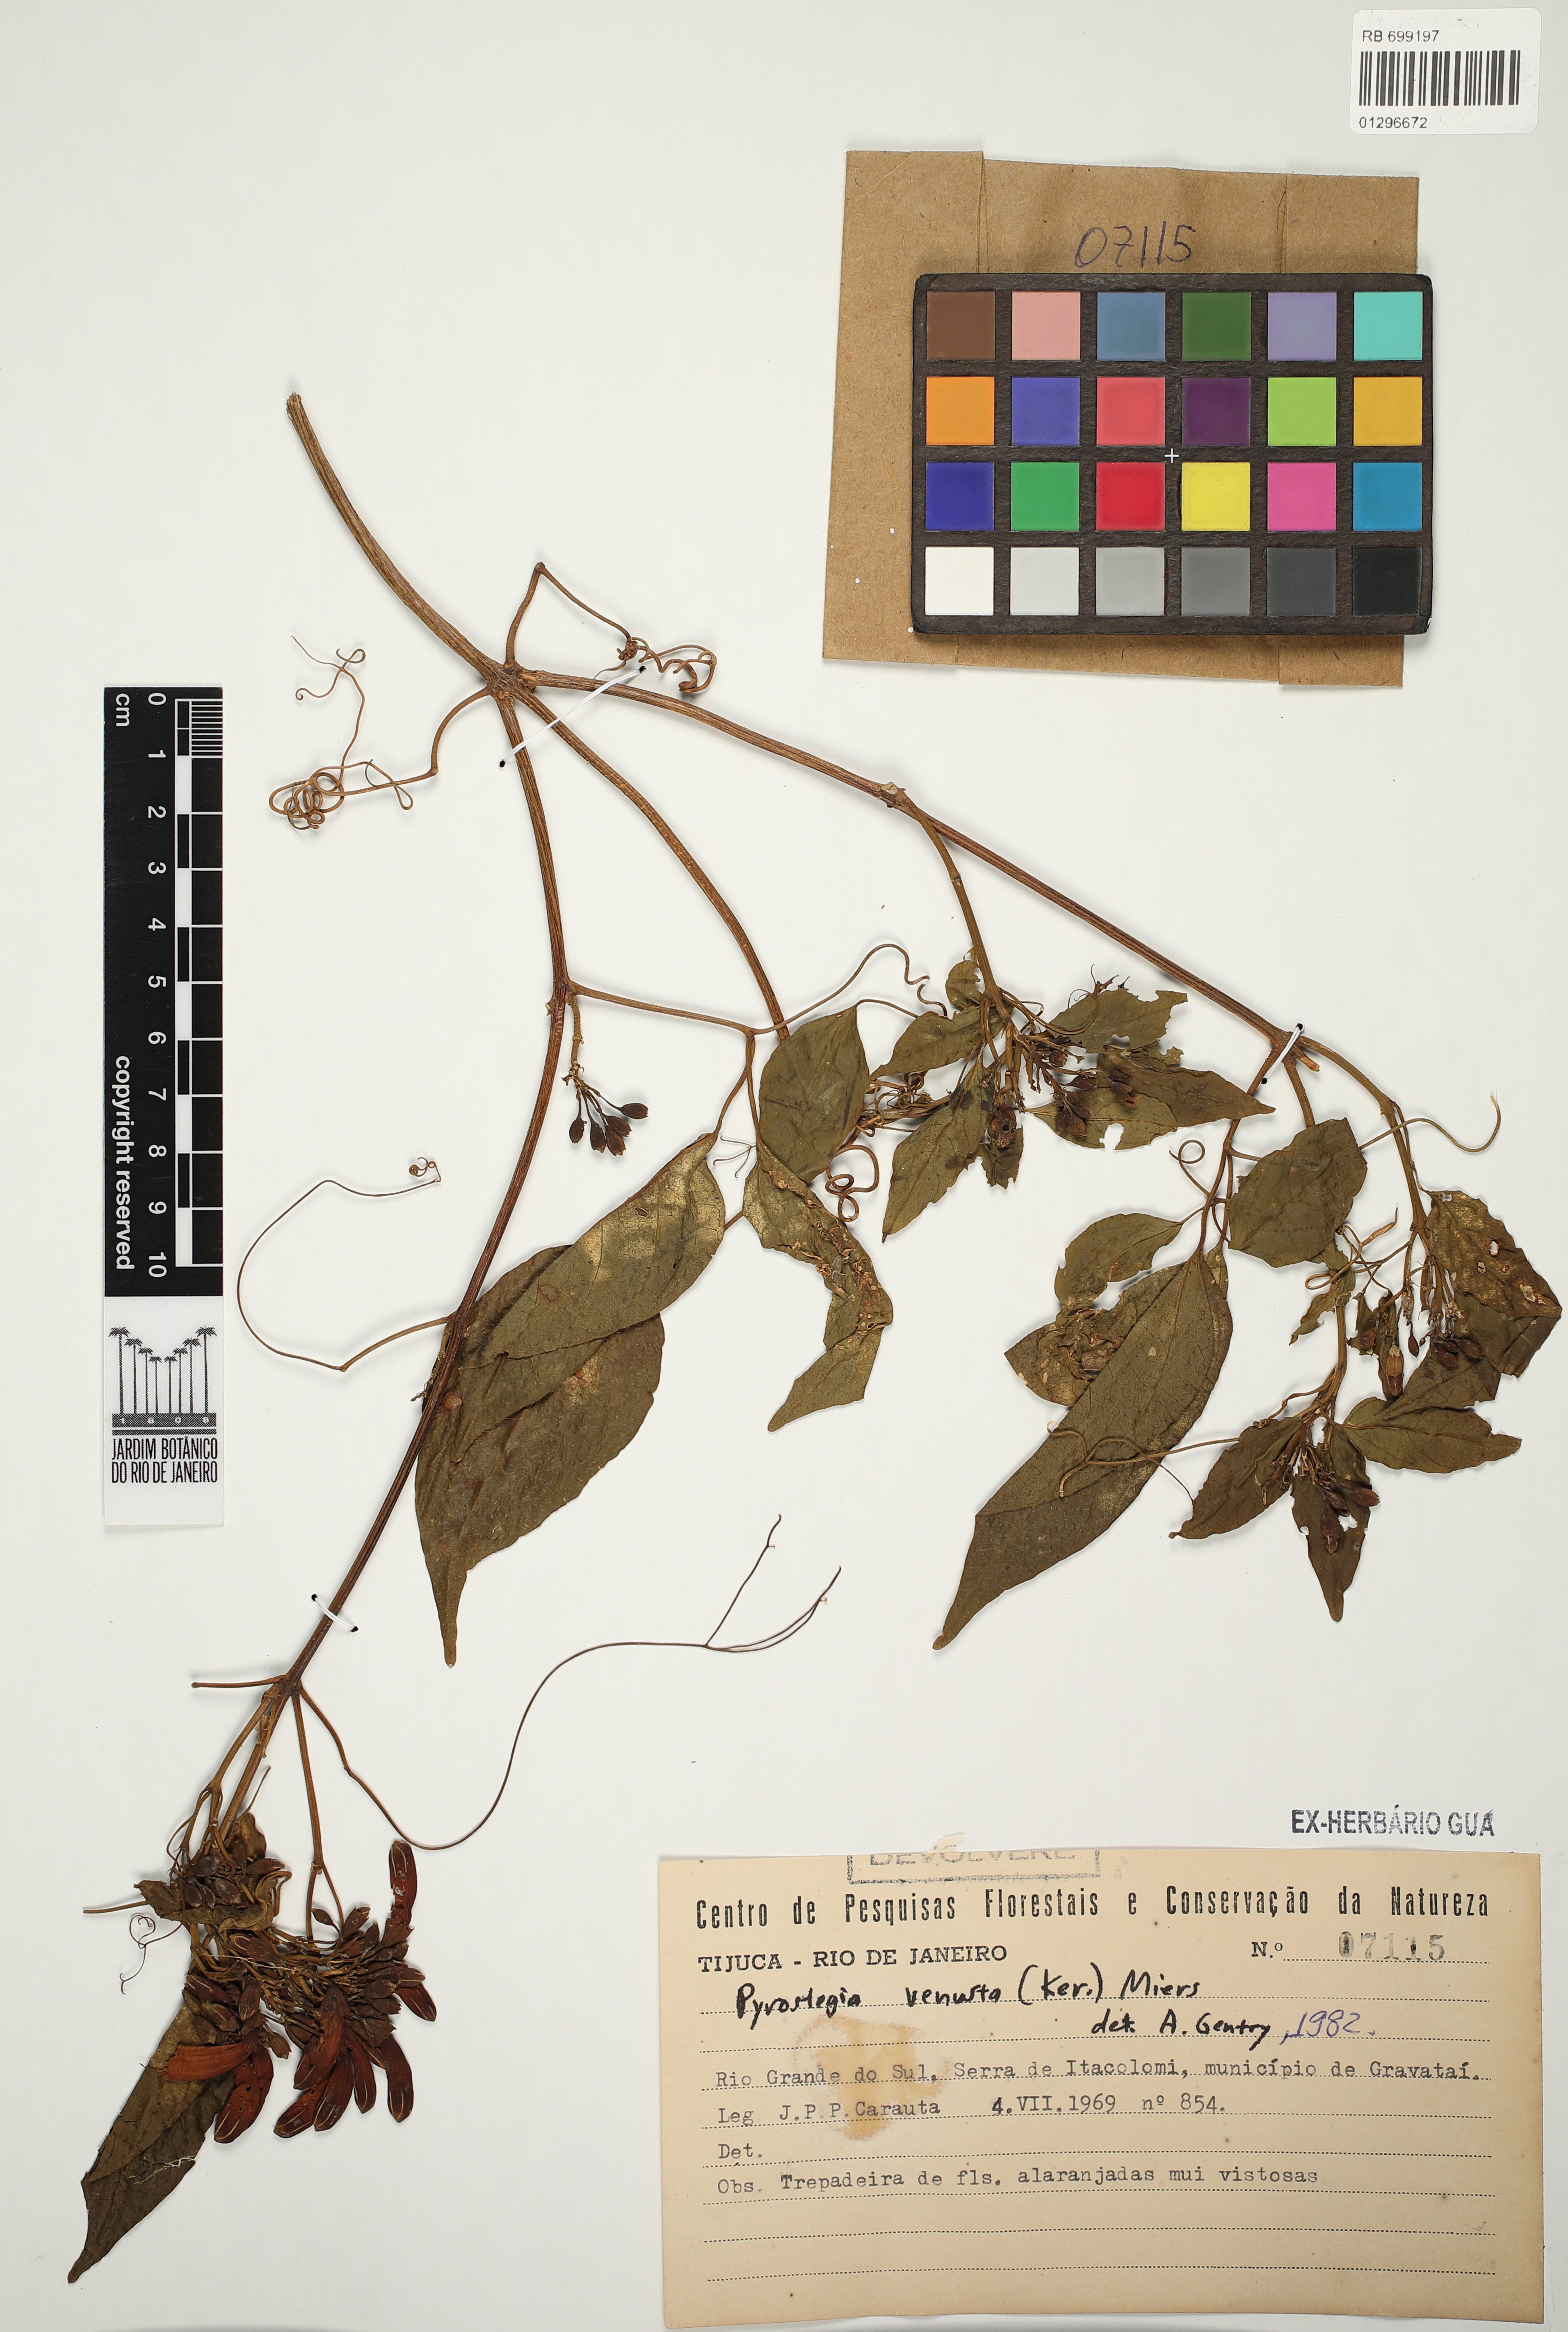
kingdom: Plantae
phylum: Tracheophyta
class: Magnoliopsida
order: Lamiales
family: Bignoniaceae
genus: Pyrostegia
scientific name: Pyrostegia venusta
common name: Flamevine
